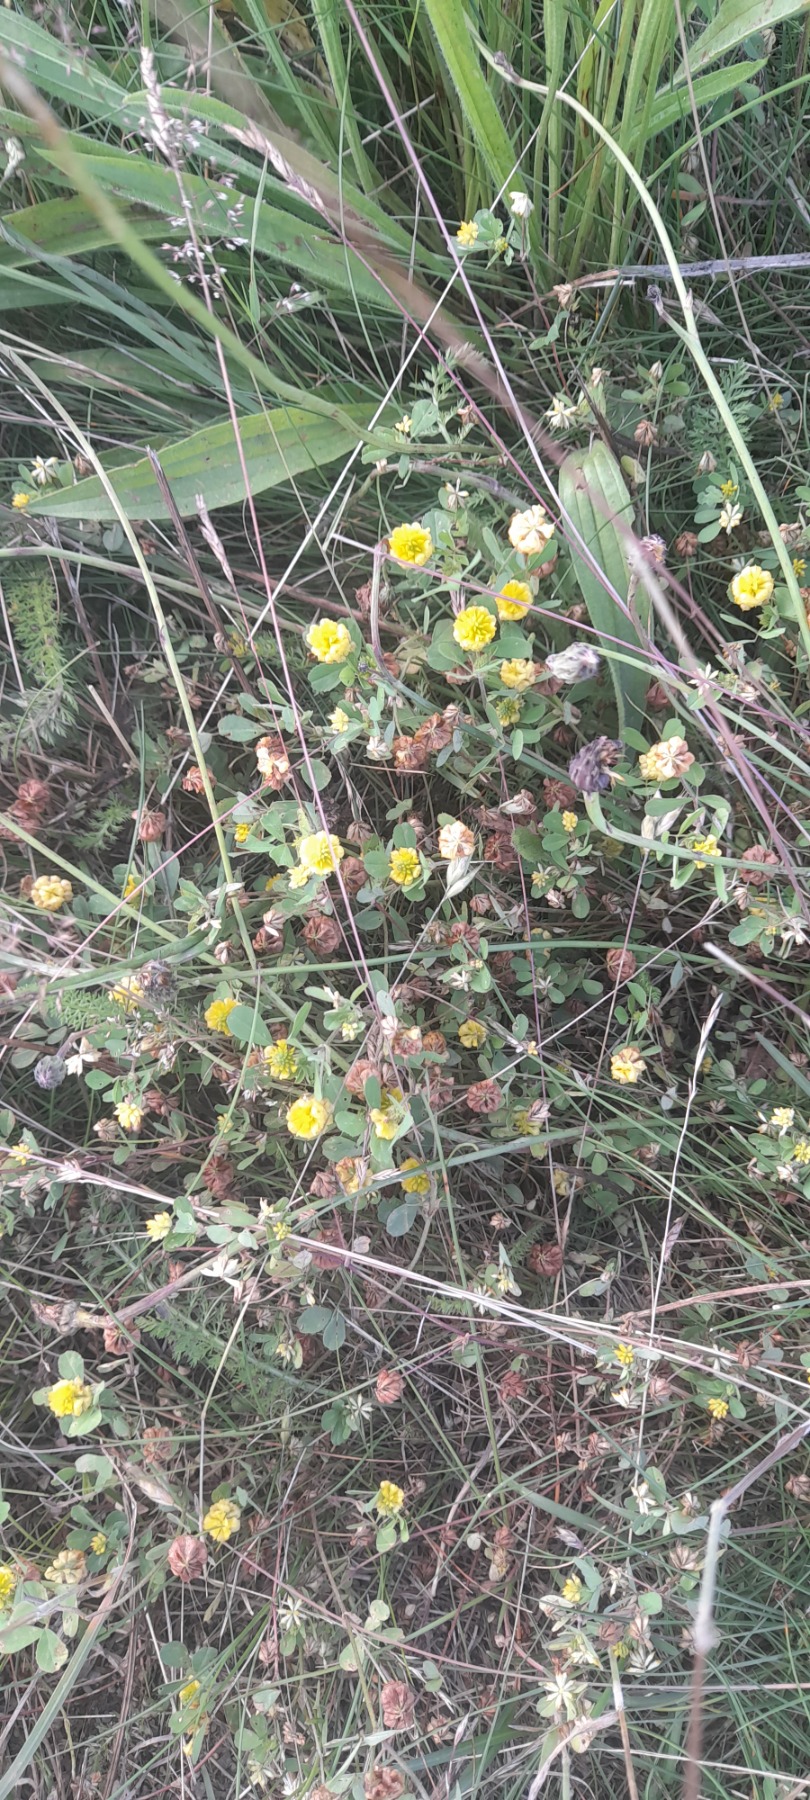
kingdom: Plantae
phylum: Tracheophyta
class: Magnoliopsida
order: Fabales
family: Fabaceae
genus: Trifolium
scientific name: Trifolium campestre
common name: Gul kløver
